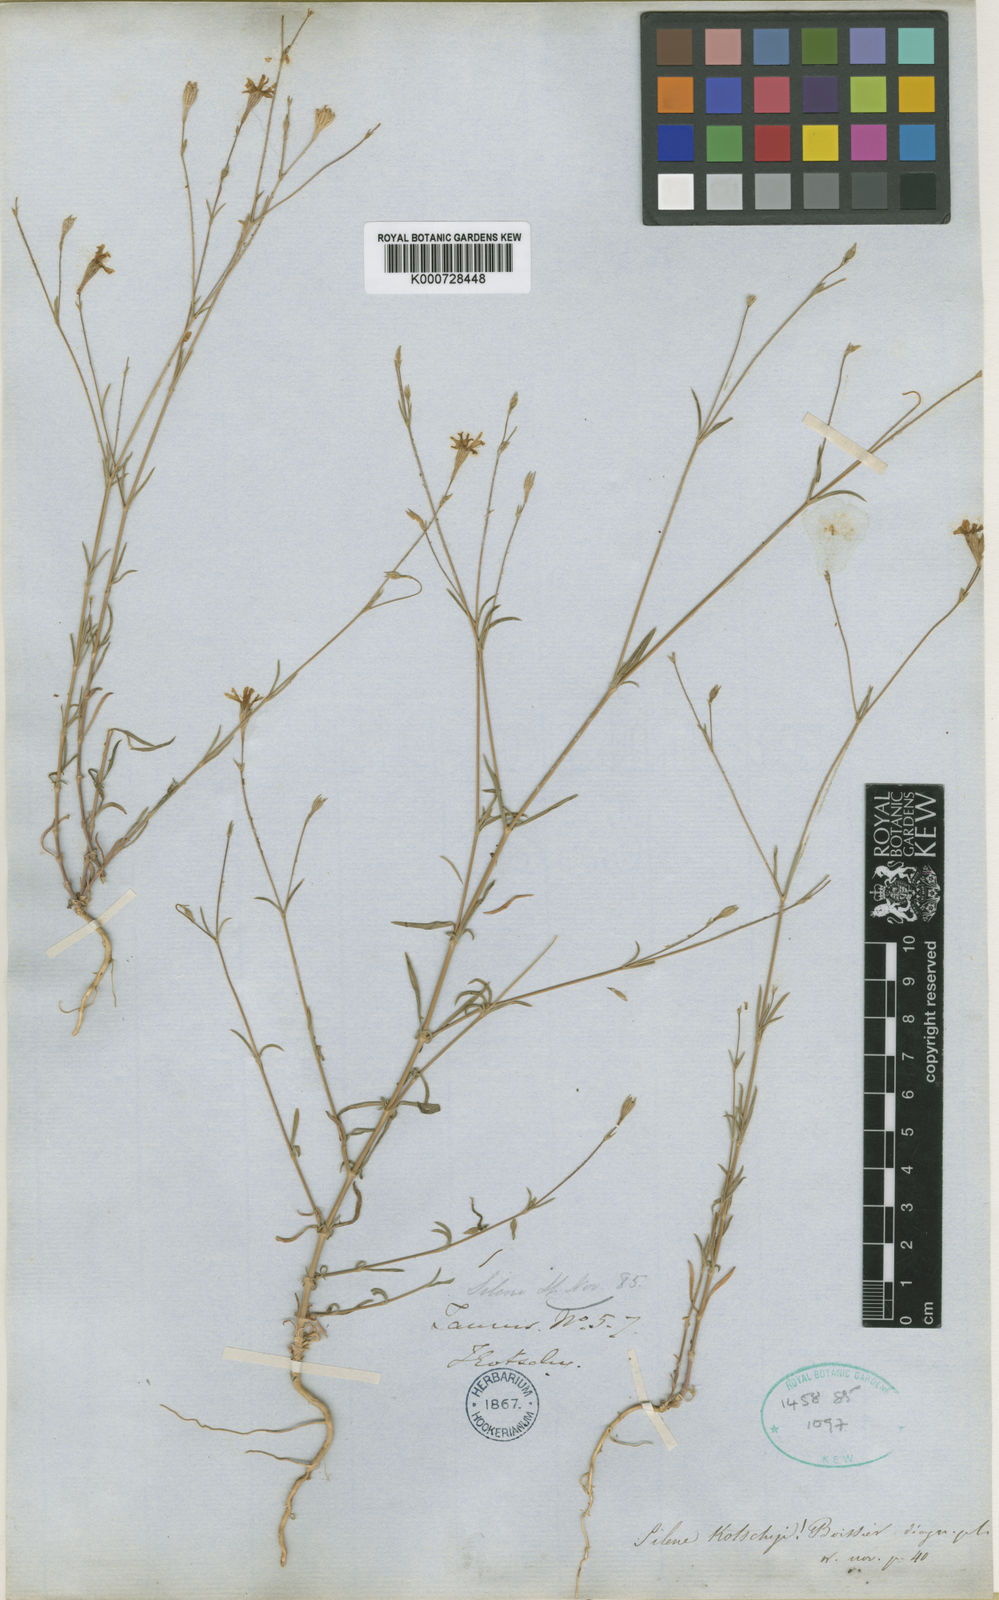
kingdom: Plantae
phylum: Tracheophyta
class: Magnoliopsida
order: Caryophyllales
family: Caryophyllaceae
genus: Silene
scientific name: Silene microsperma
